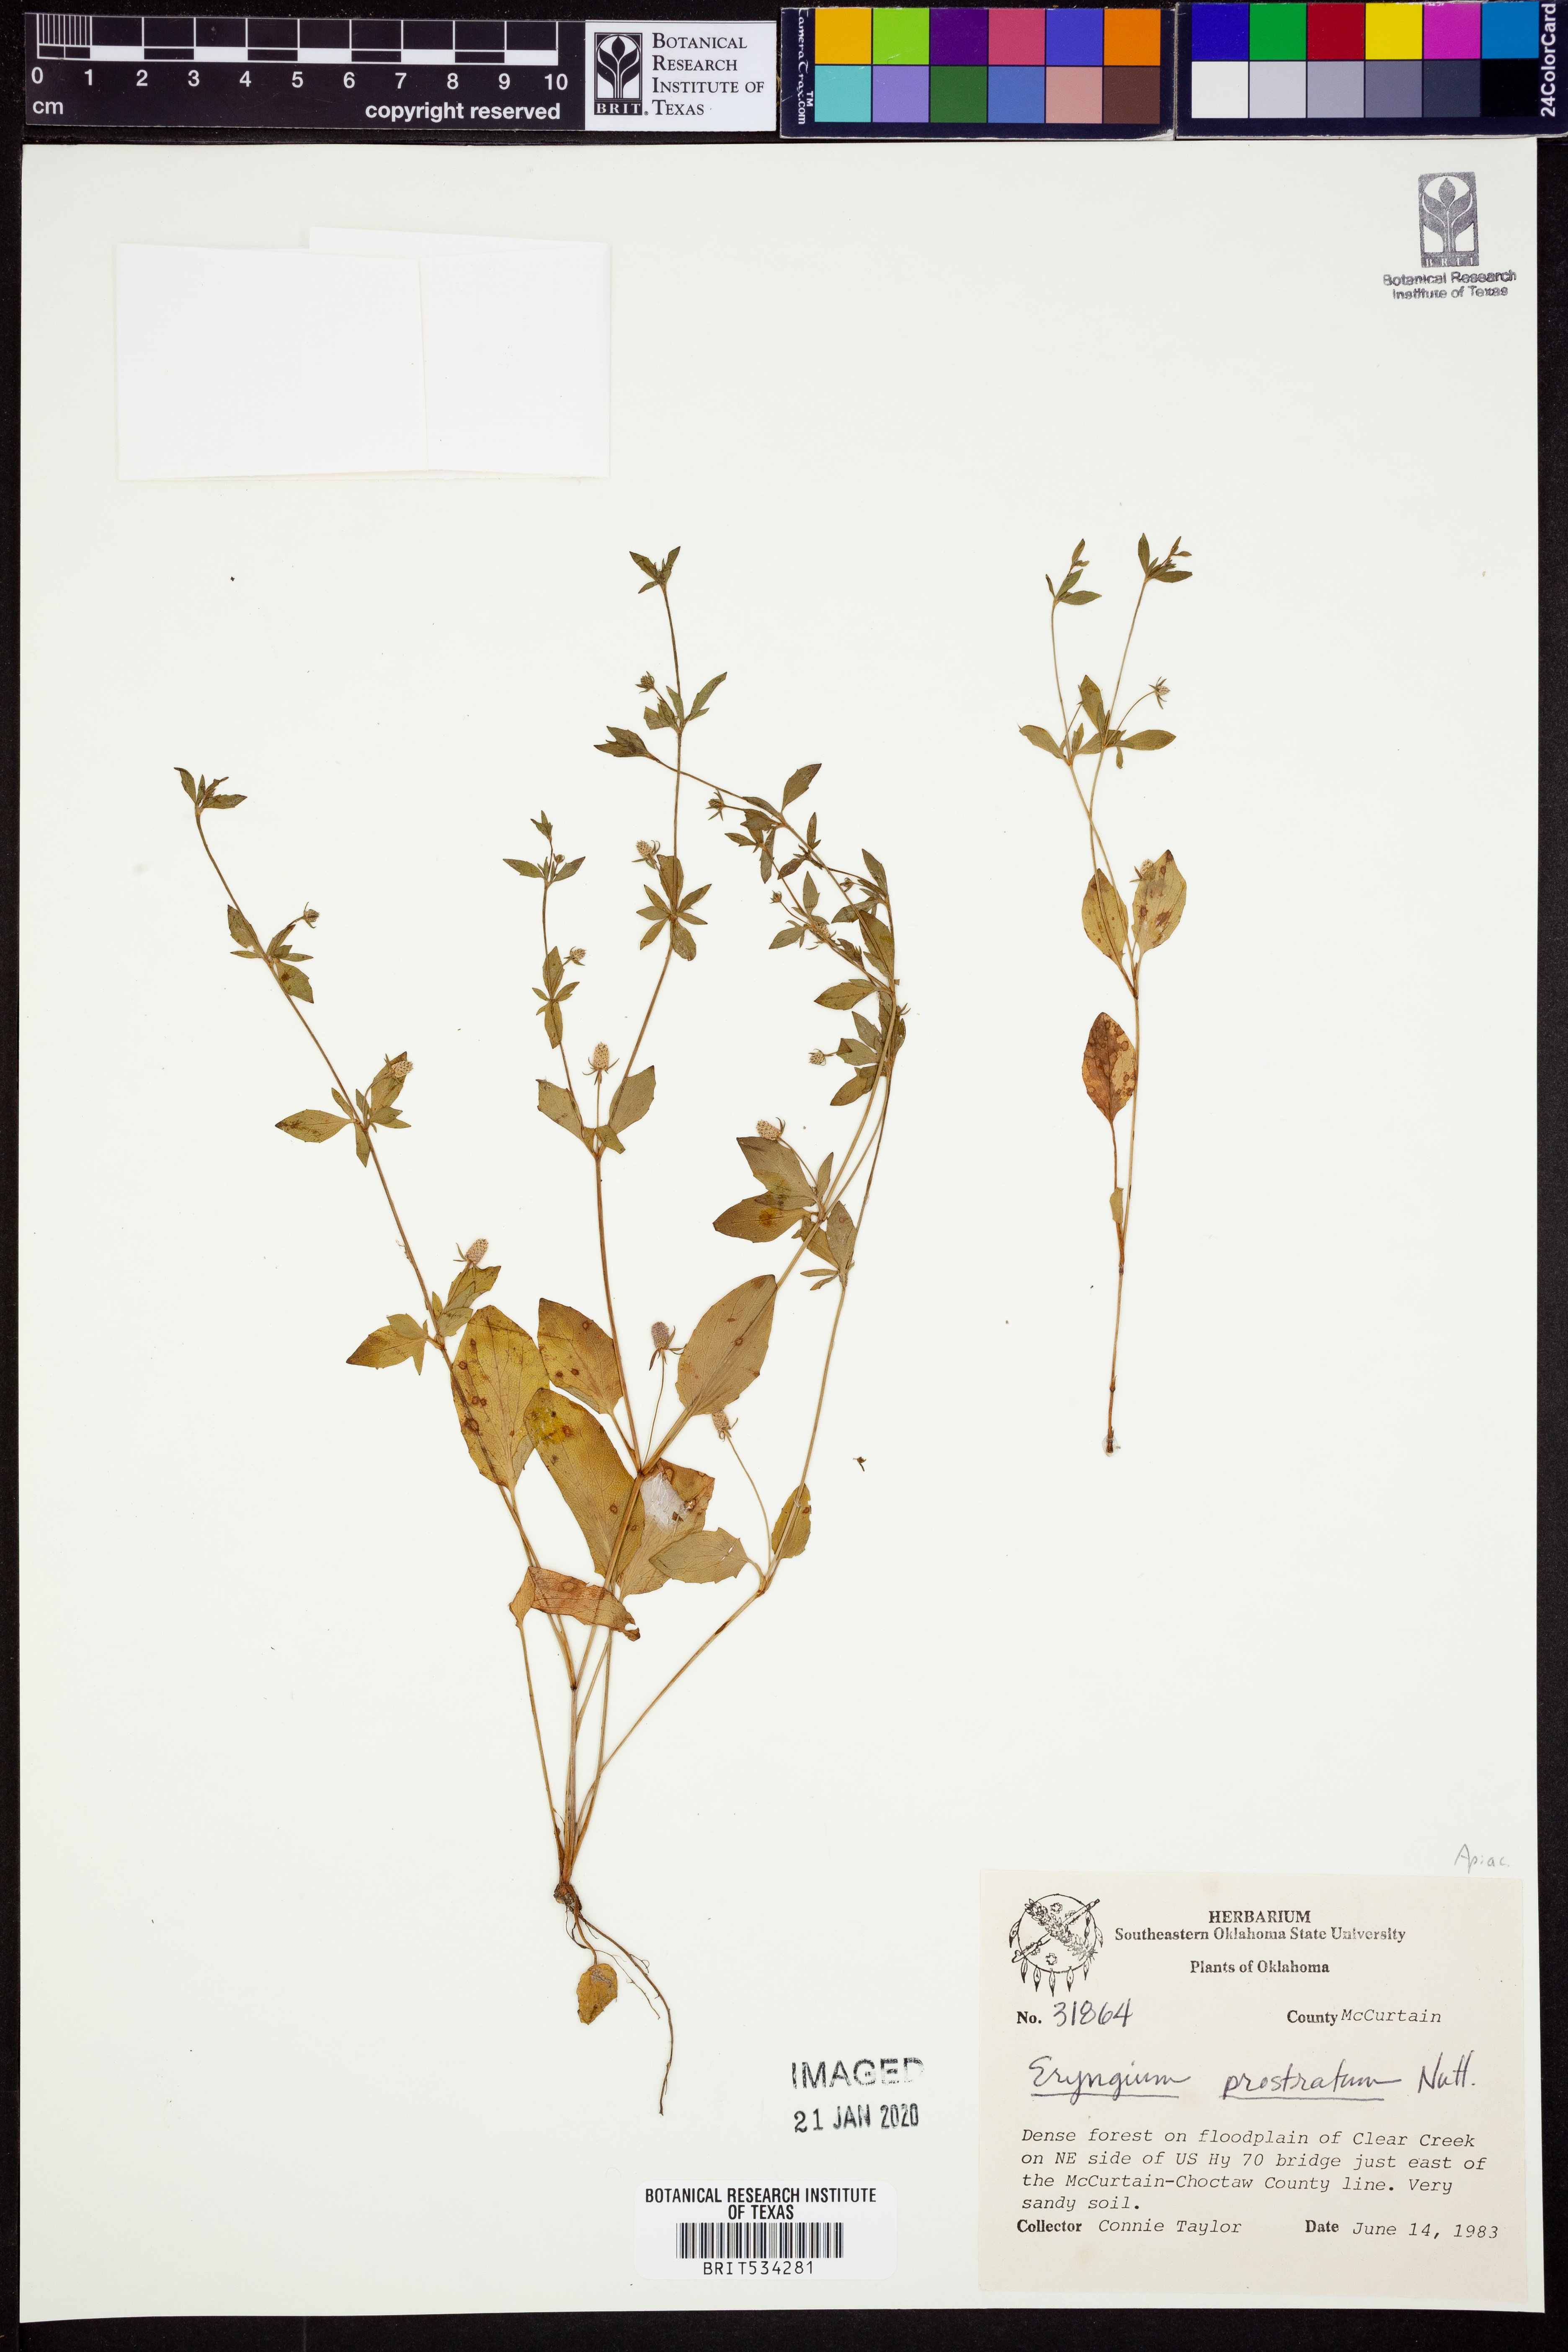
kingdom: Plantae
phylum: Tracheophyta
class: Magnoliopsida
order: Apiales
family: Apiaceae
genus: Eryngium
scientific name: Eryngium prostratum
